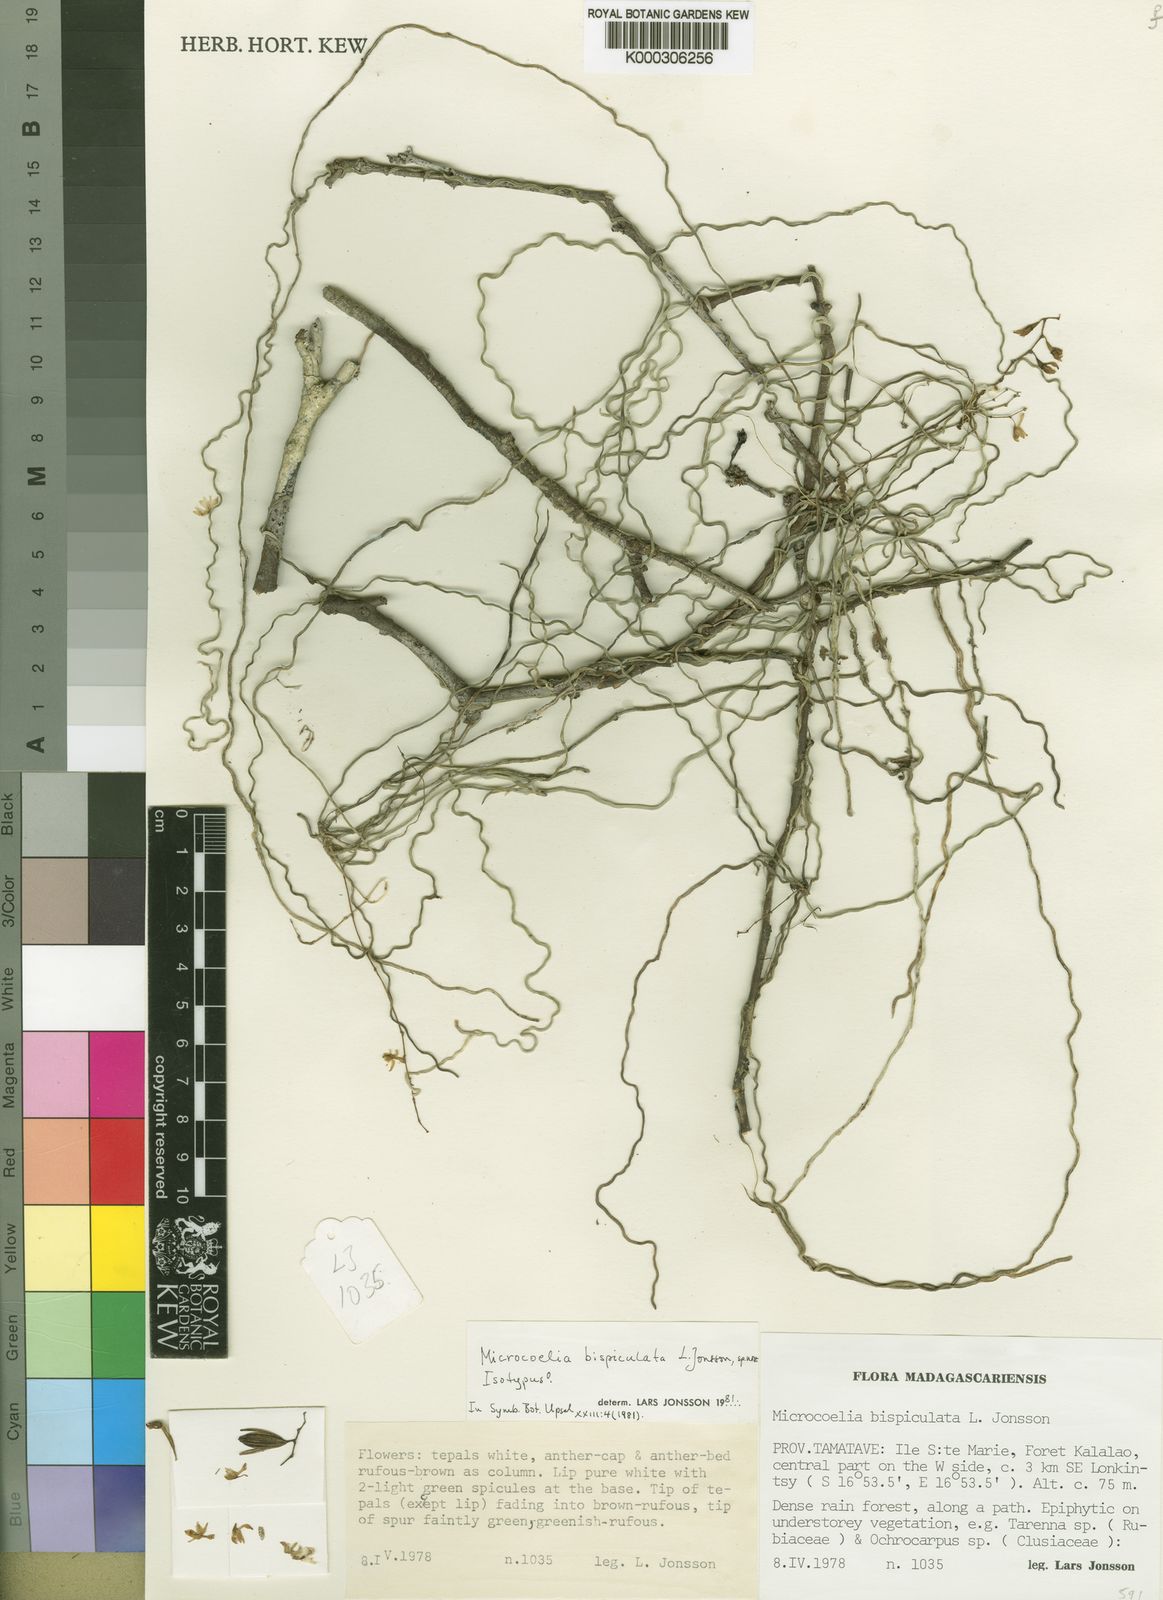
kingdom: Plantae
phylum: Tracheophyta
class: Liliopsida
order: Asparagales
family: Orchidaceae
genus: Microcoelia
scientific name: Microcoelia bispiculata
